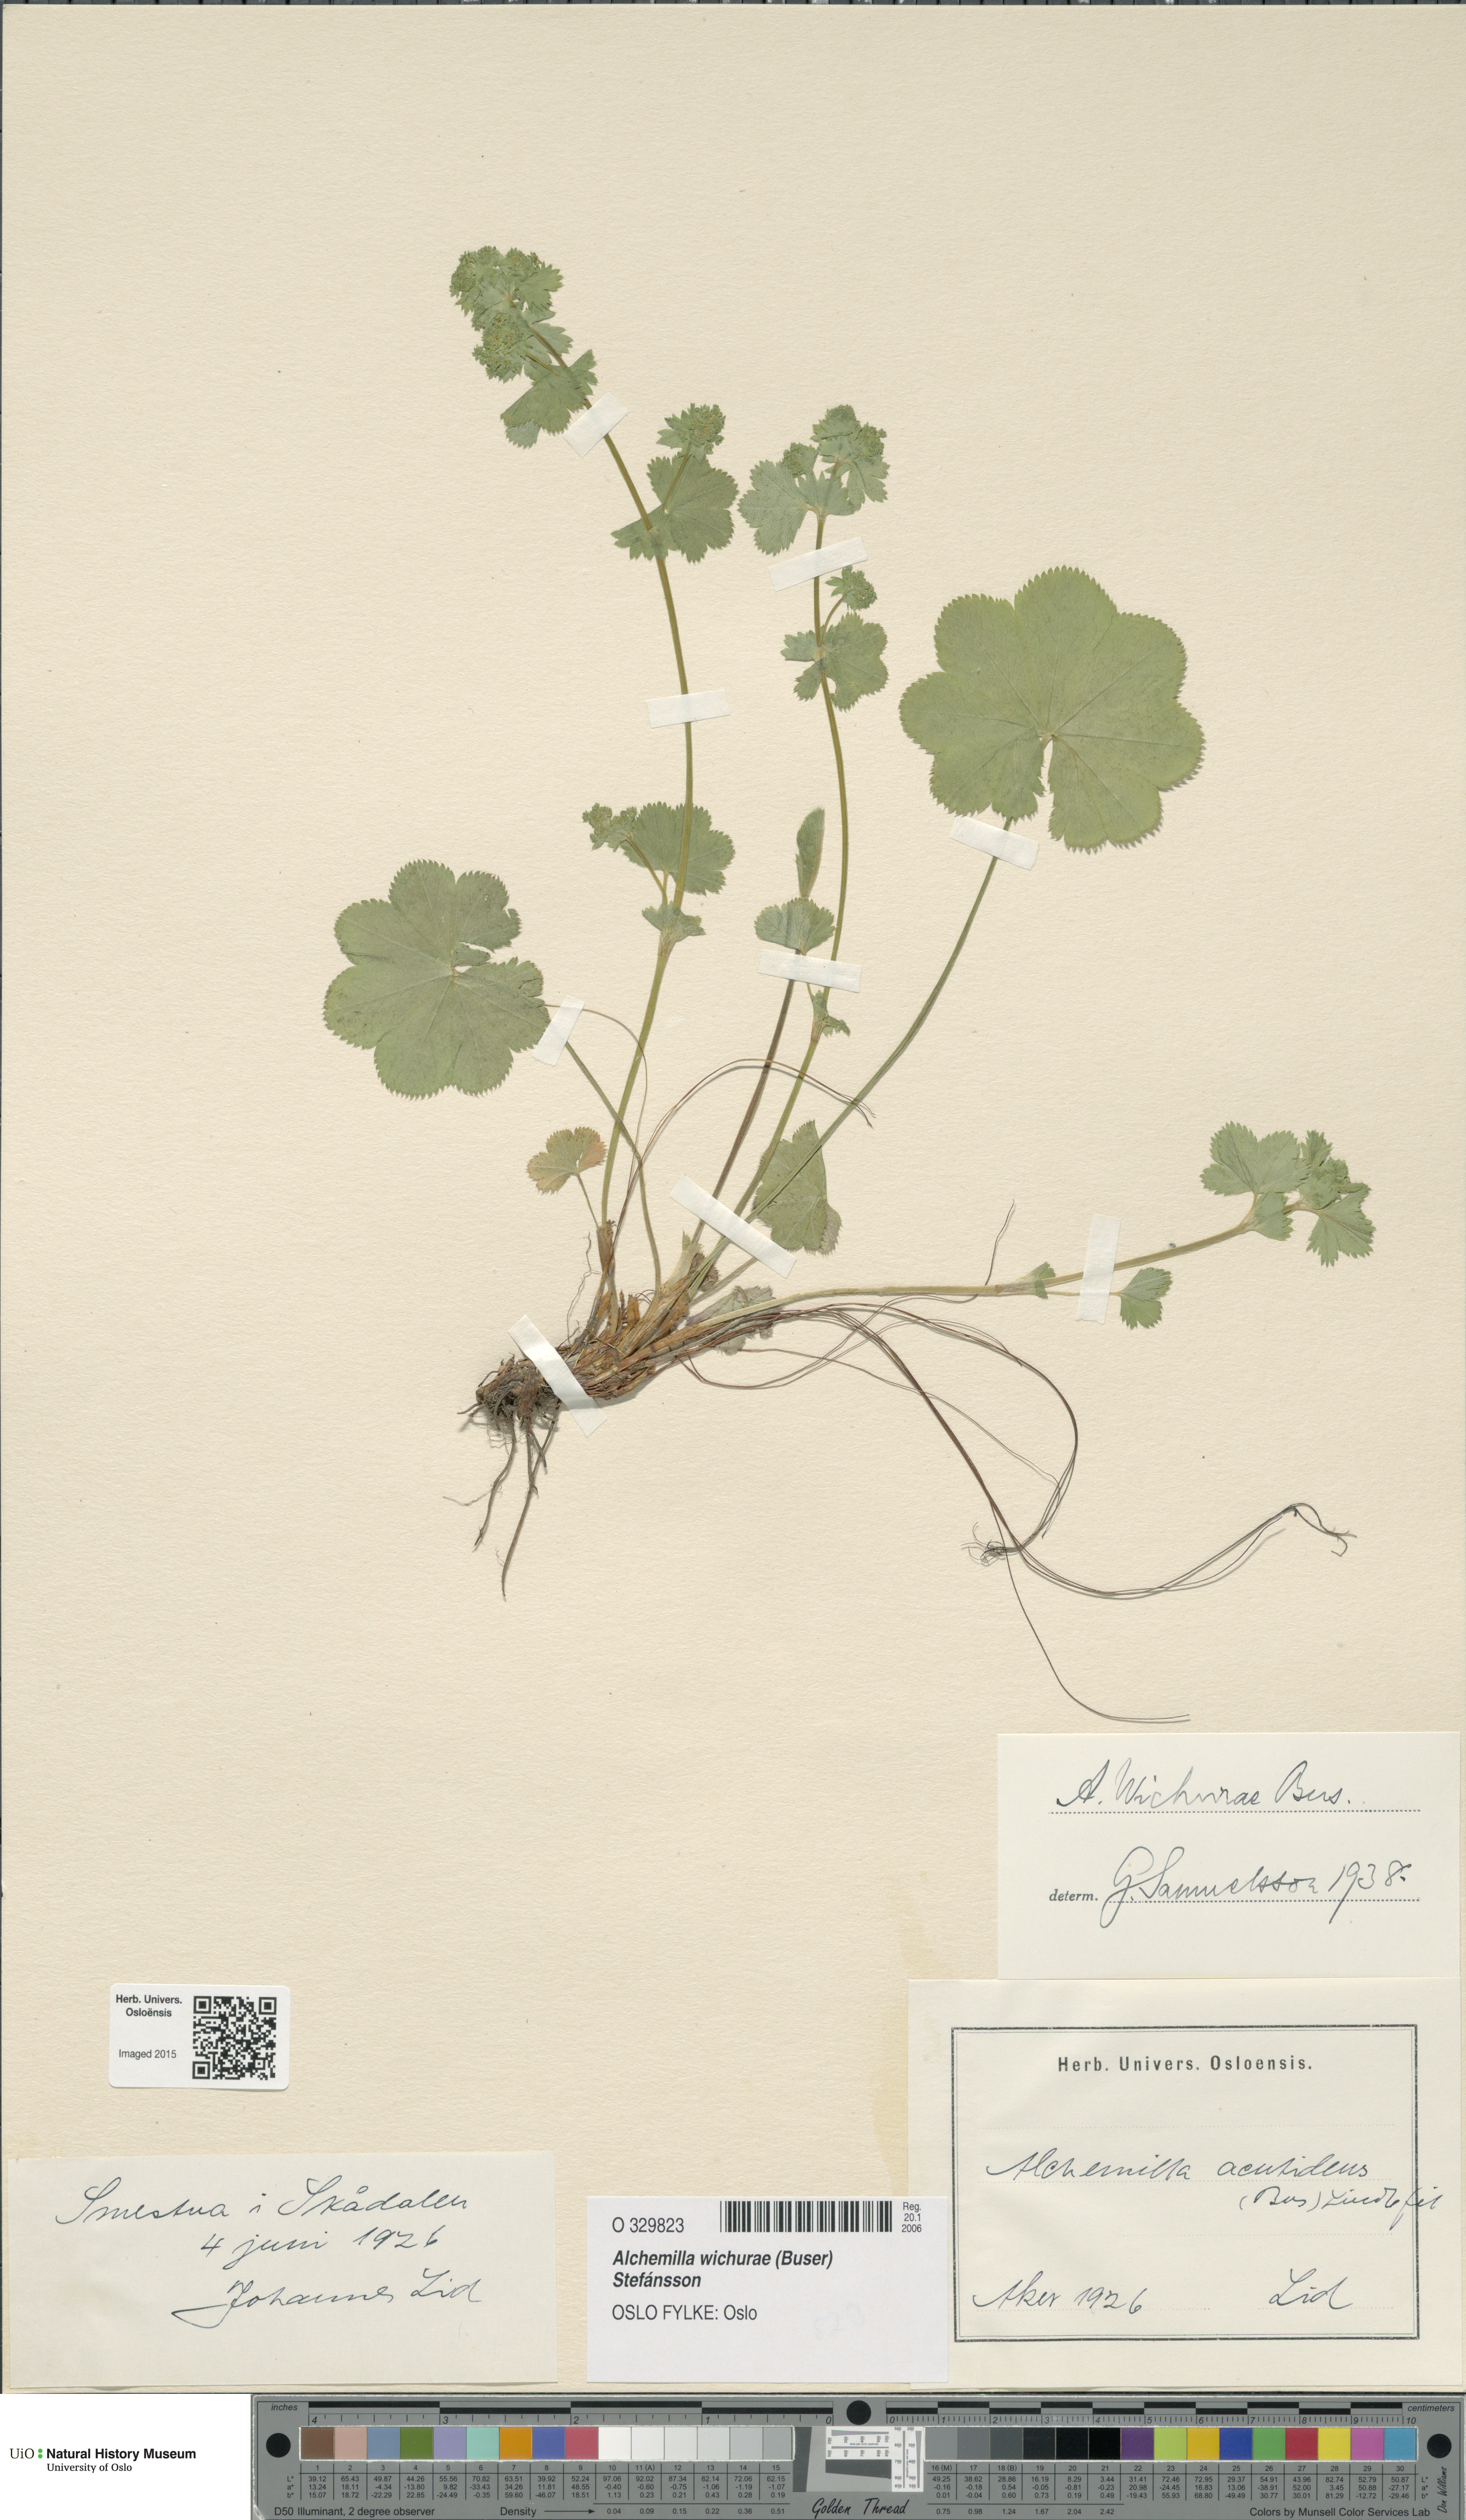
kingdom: Plantae
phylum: Tracheophyta
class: Magnoliopsida
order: Rosales
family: Rosaceae
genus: Alchemilla
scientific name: Alchemilla wichurae
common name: Rock lady's mantle
